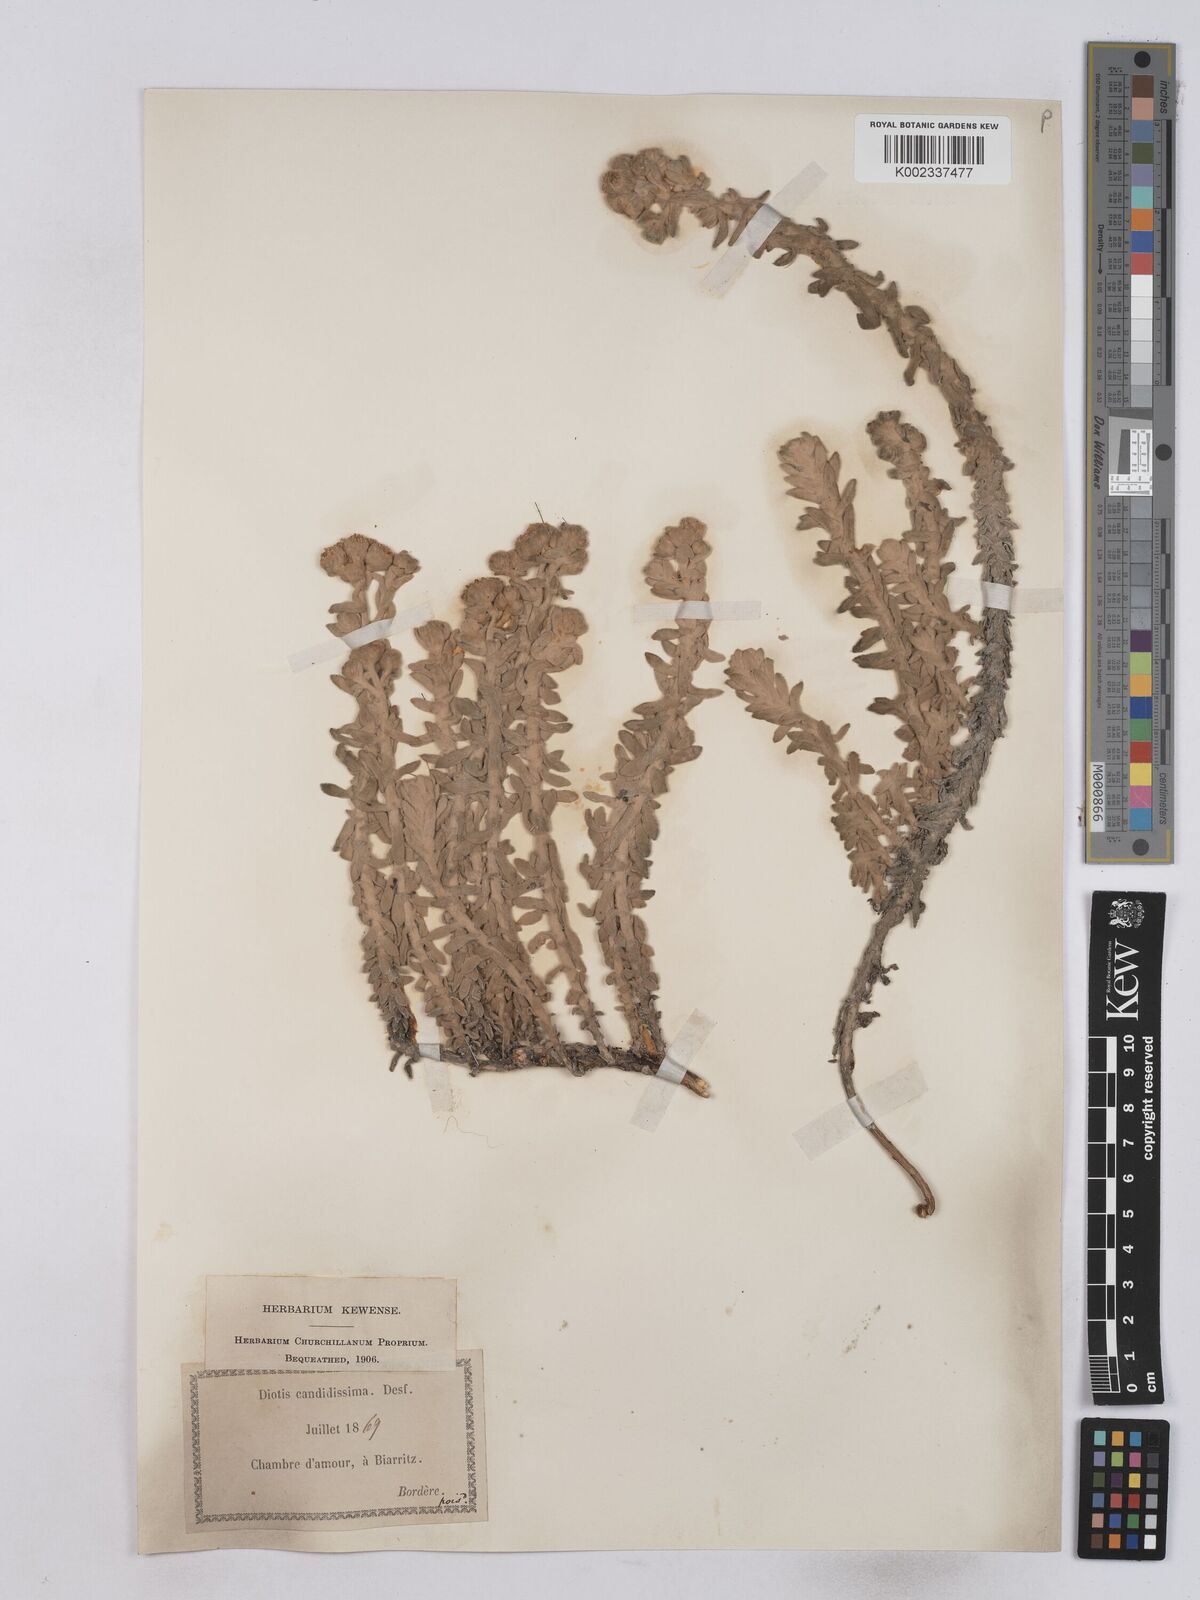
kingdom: Plantae
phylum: Tracheophyta
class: Magnoliopsida
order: Asterales
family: Asteraceae
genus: Achillea
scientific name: Achillea maritima
